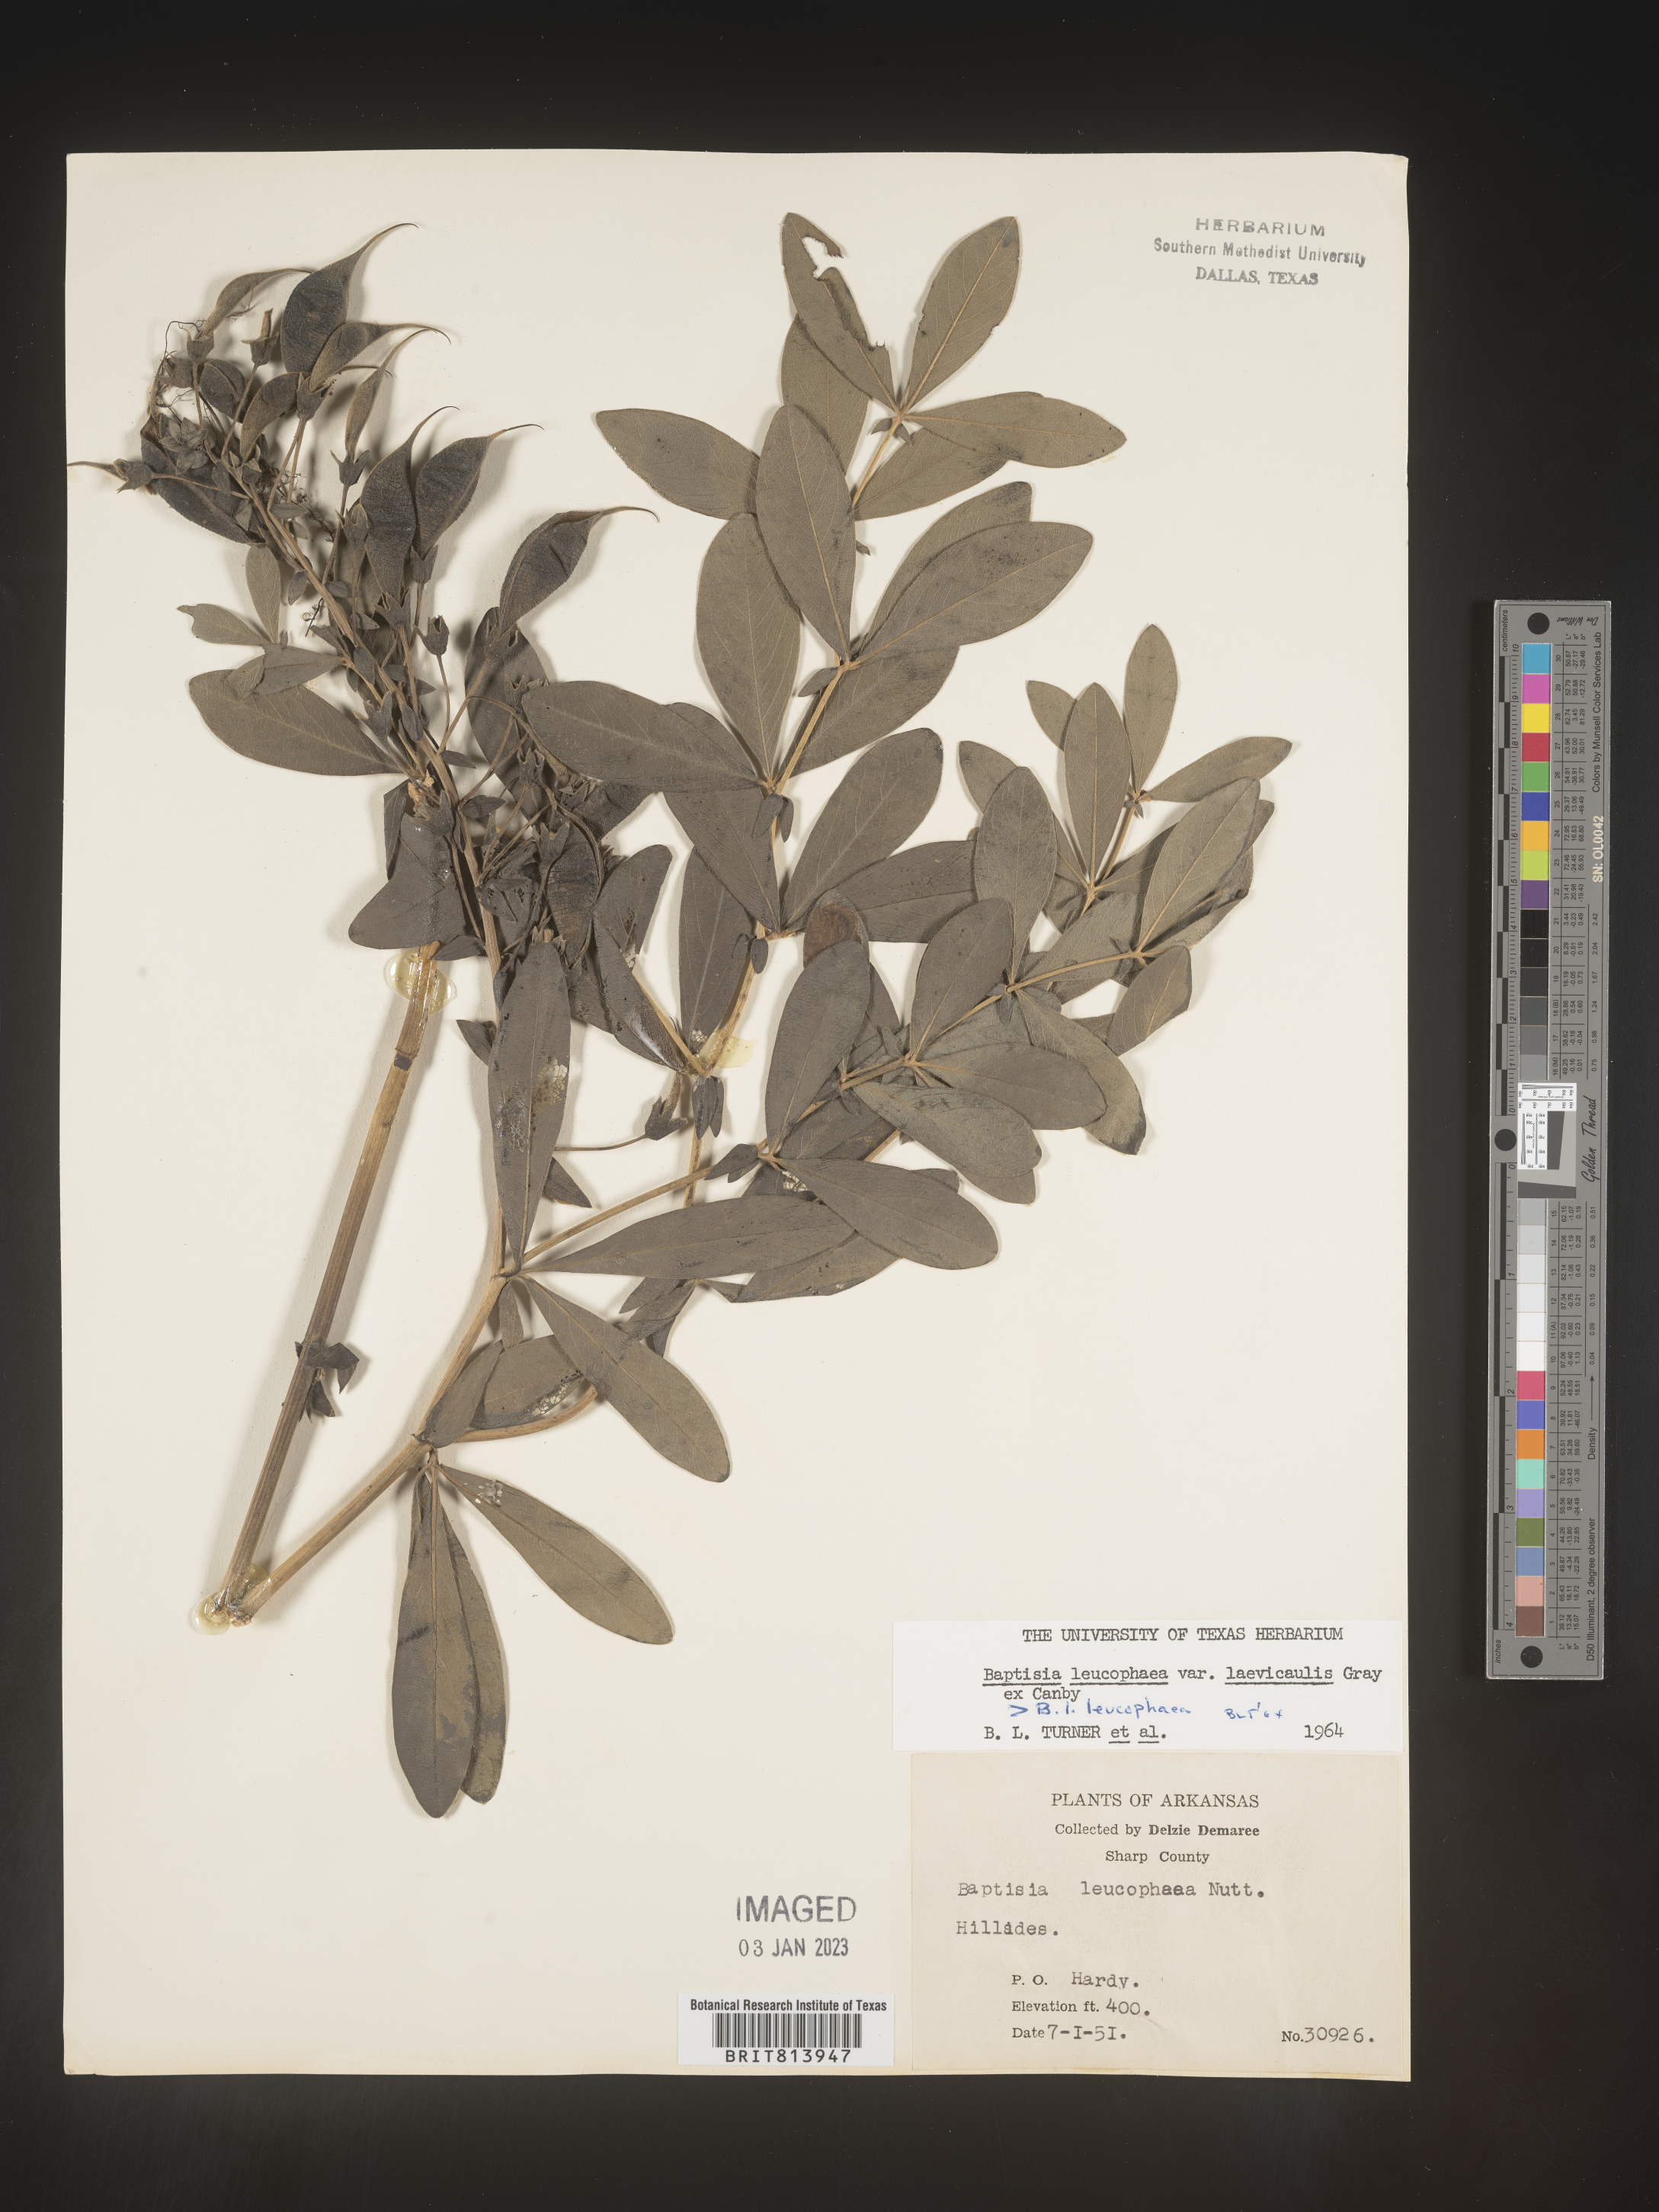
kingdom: Plantae
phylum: Tracheophyta
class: Magnoliopsida
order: Fabales
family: Fabaceae
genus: Baptisia
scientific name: Baptisia bracteata
